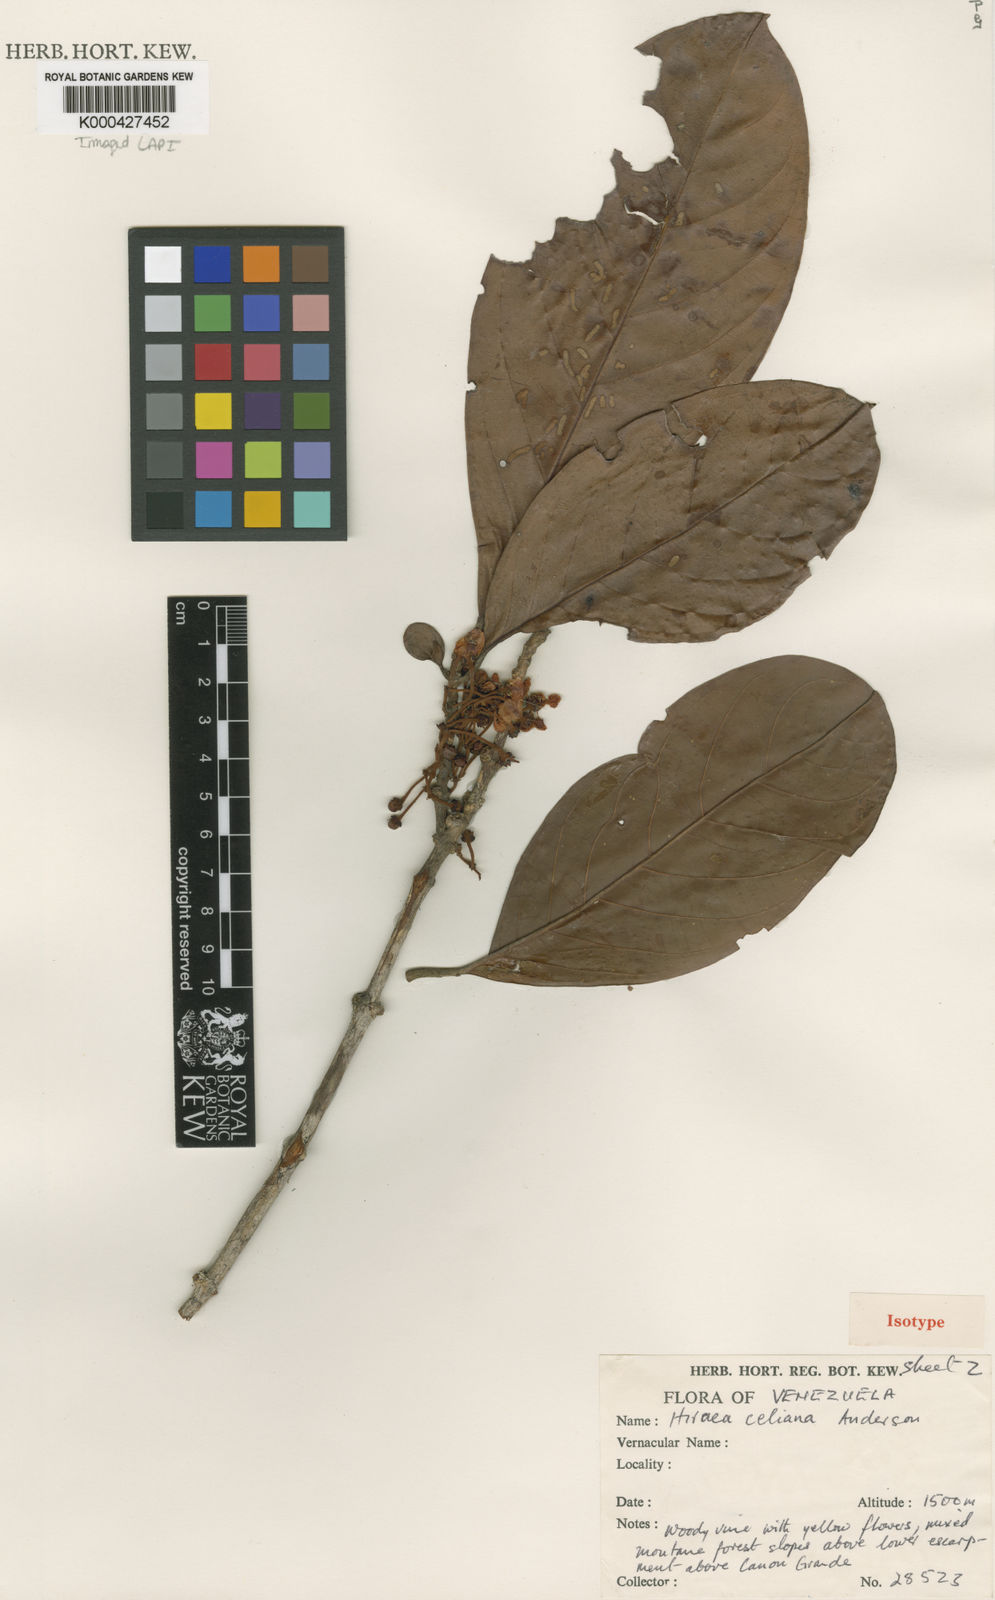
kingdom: Plantae
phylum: Tracheophyta
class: Magnoliopsida
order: Malpighiales
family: Malpighiaceae
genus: Hiraea
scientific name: Hiraea celiana
